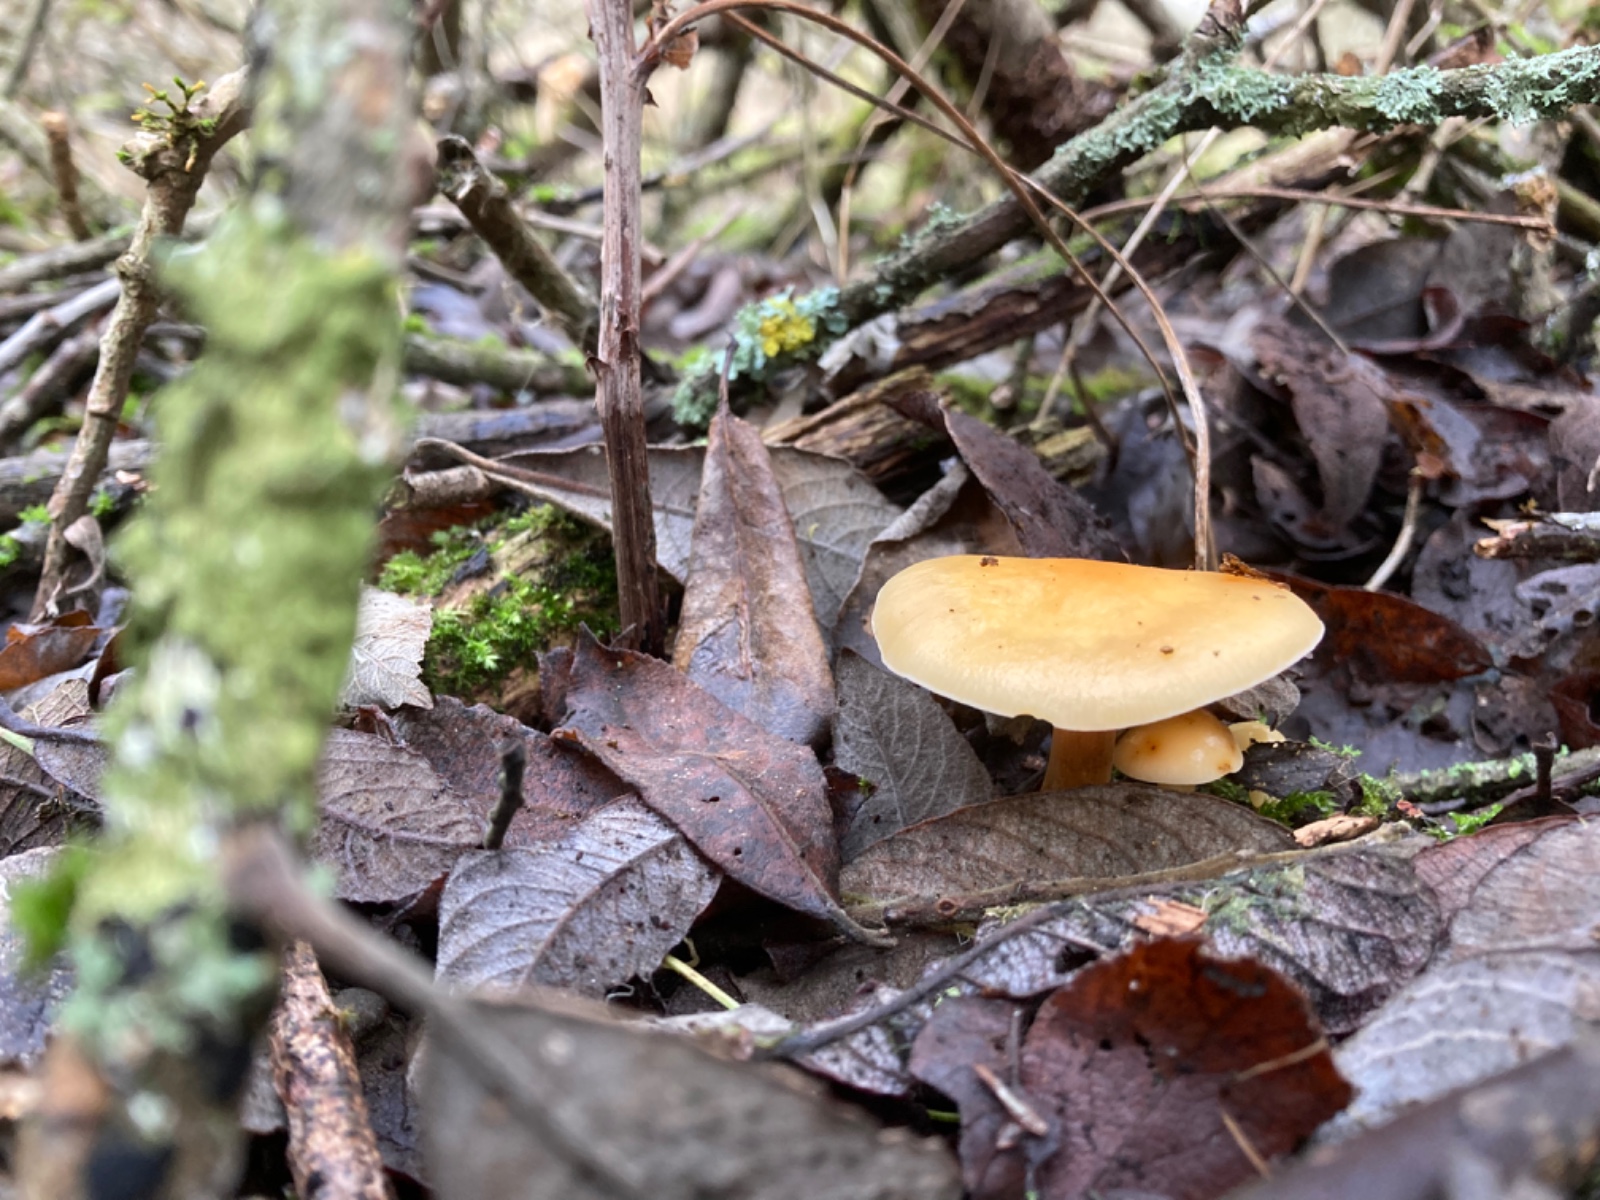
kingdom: Fungi
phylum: Basidiomycota
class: Agaricomycetes
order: Agaricales
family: Physalacriaceae
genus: Flammulina
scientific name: Flammulina elastica
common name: pile-fløjlsfod
